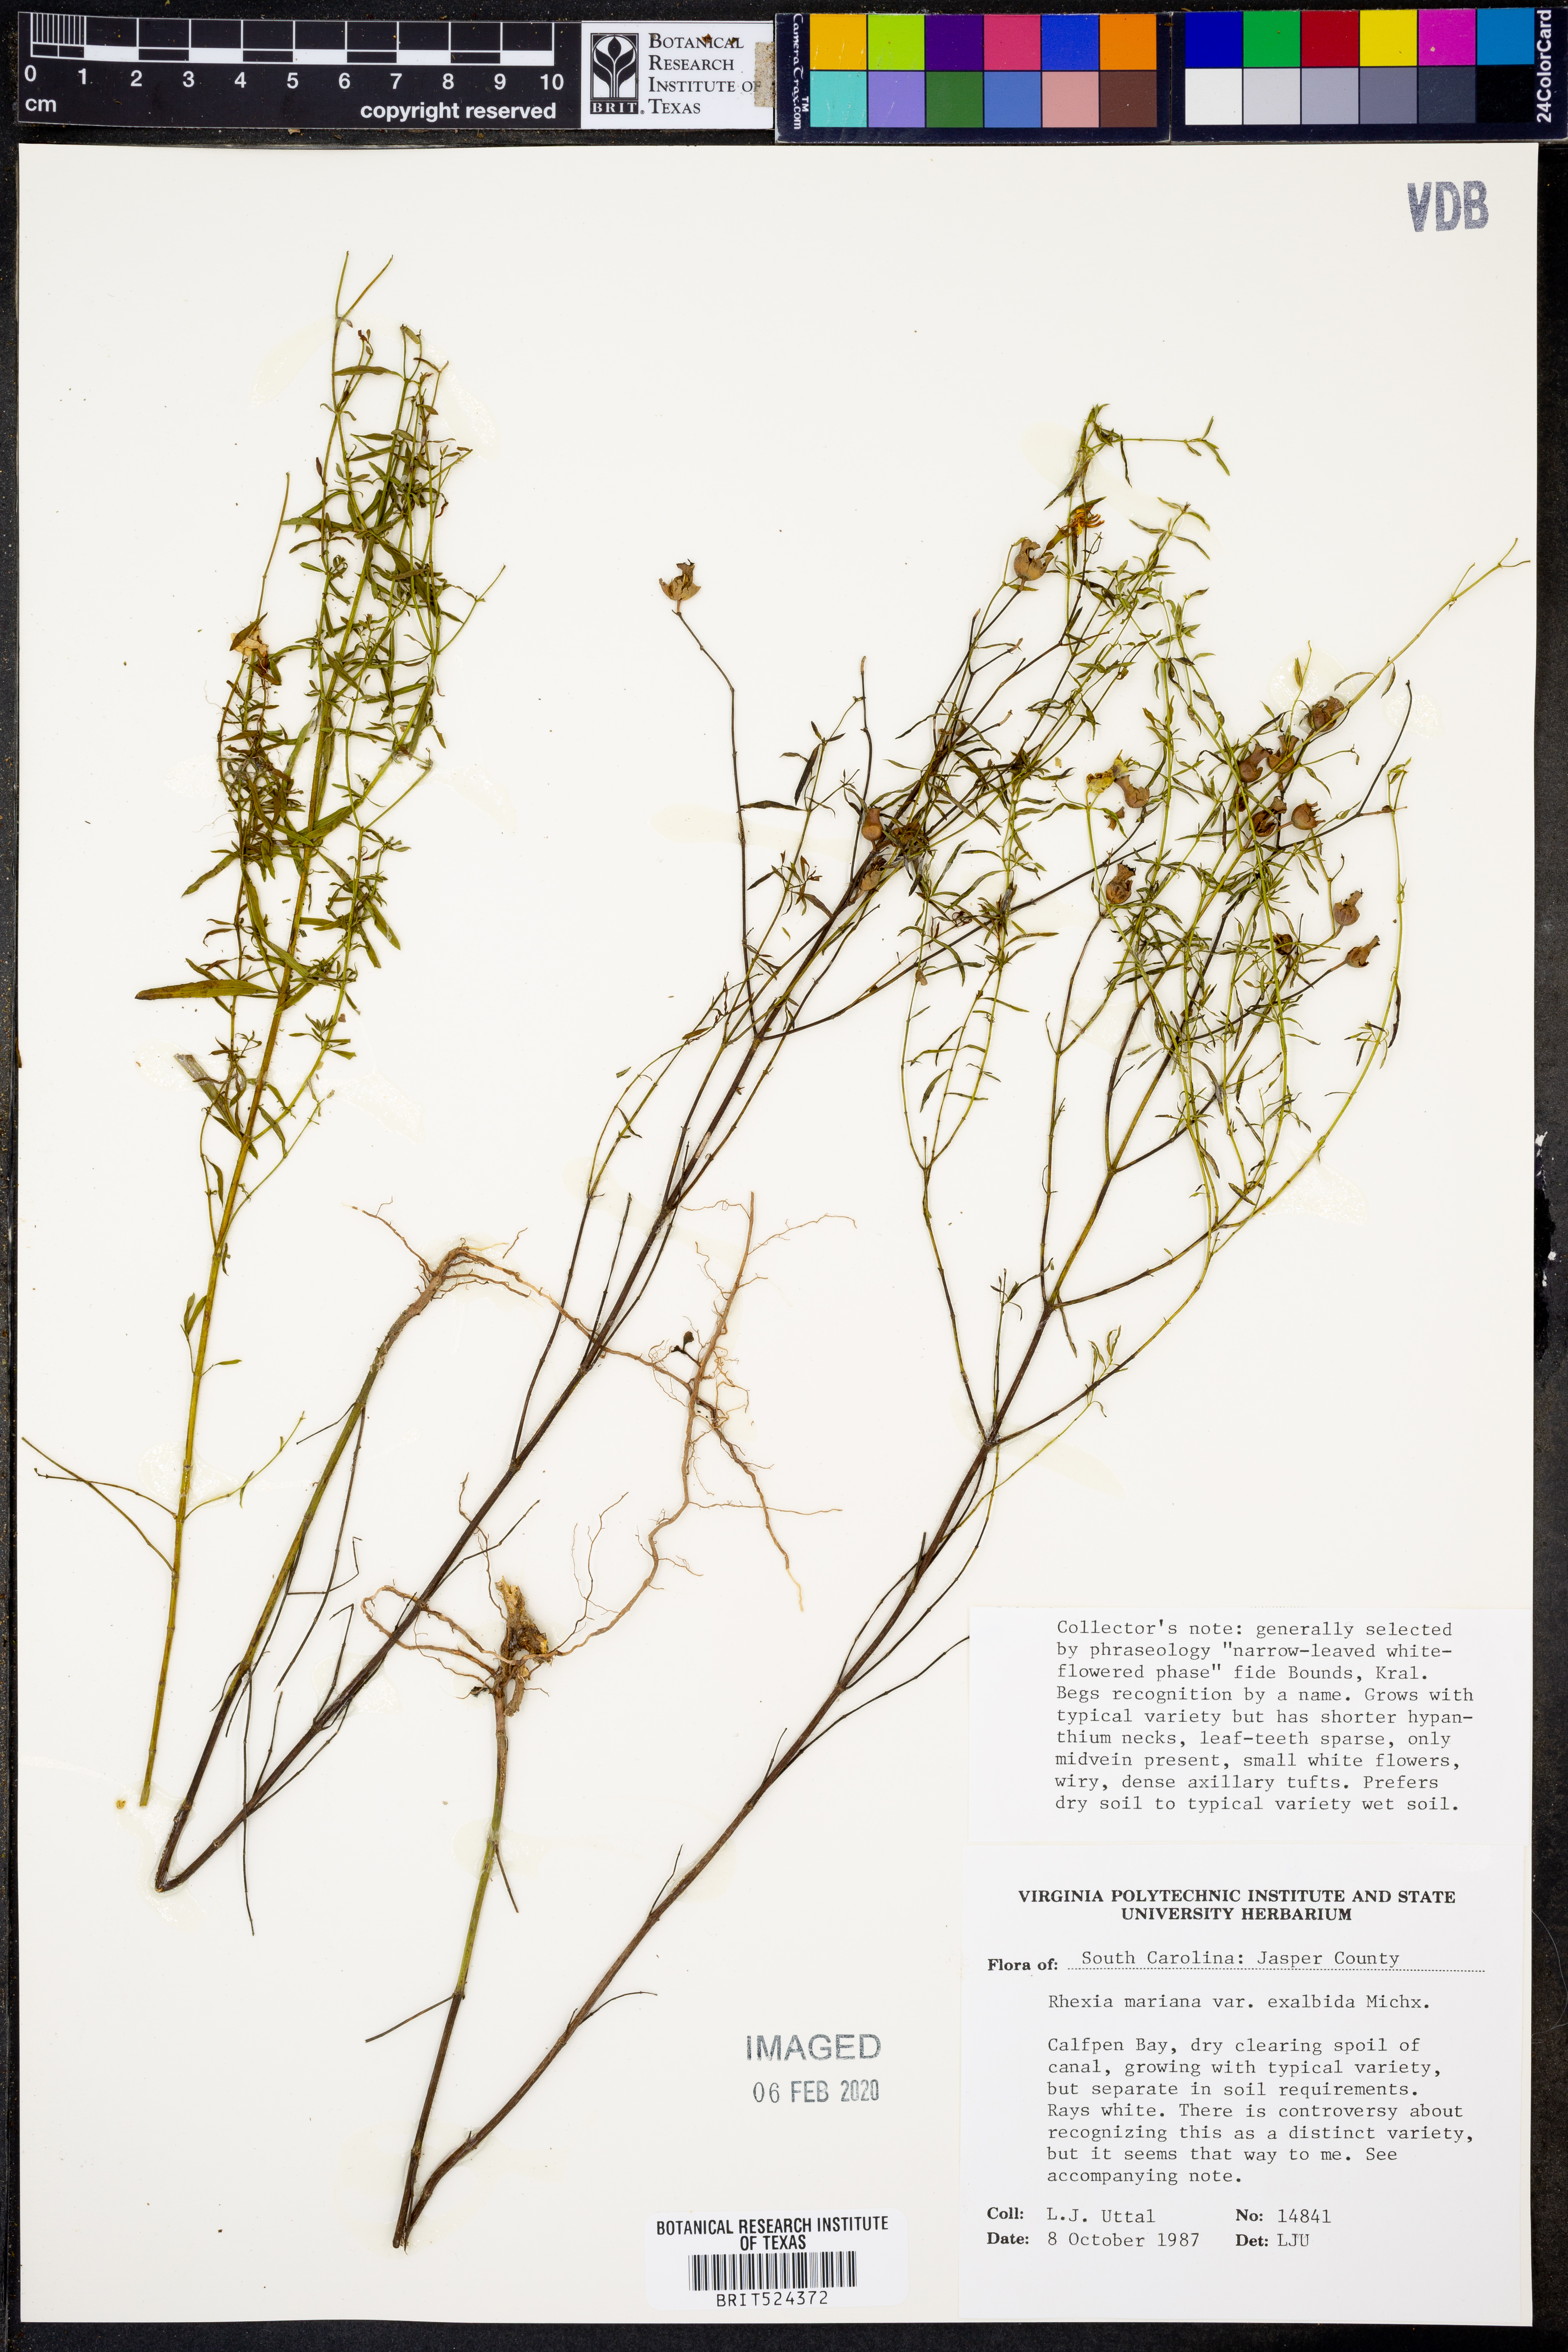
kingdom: Plantae
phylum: Tracheophyta
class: Magnoliopsida
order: Myrtales
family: Melastomataceae
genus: Rhexia
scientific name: Rhexia mariana
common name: Dull meadow-pitcher
